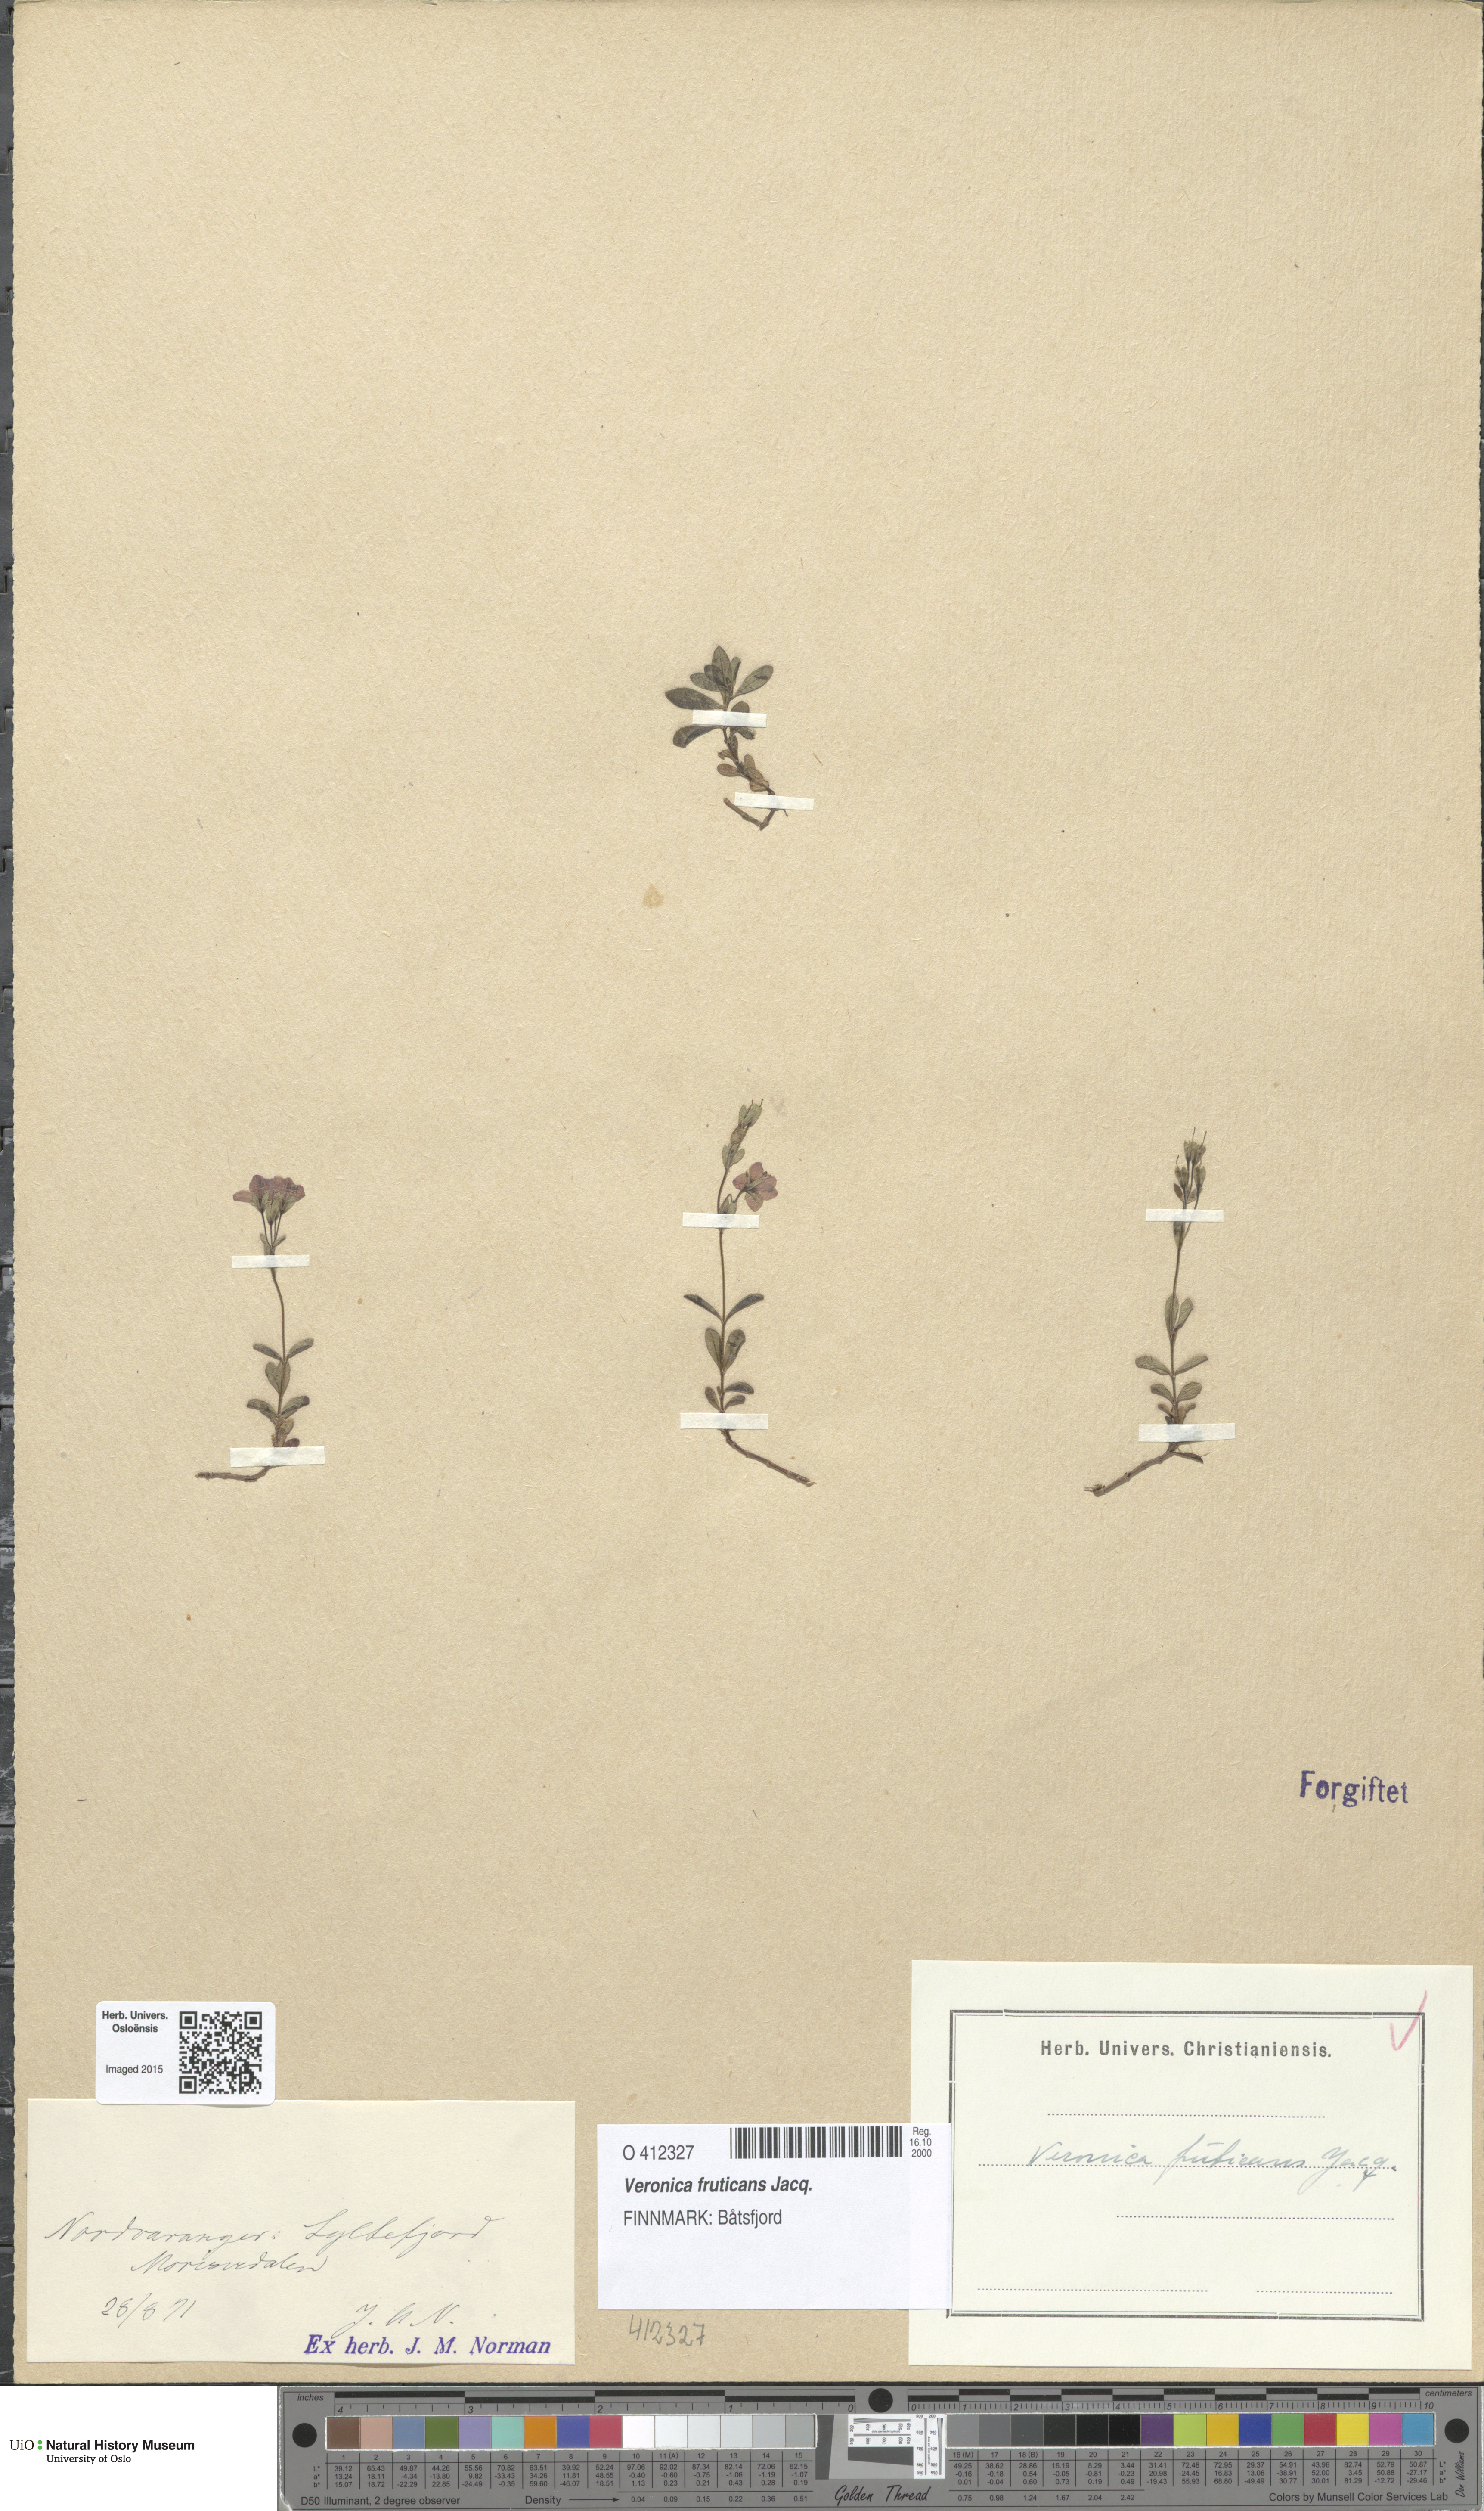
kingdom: Plantae
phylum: Tracheophyta
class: Magnoliopsida
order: Lamiales
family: Plantaginaceae
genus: Veronica
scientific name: Veronica fruticans
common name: Rock speedwell
